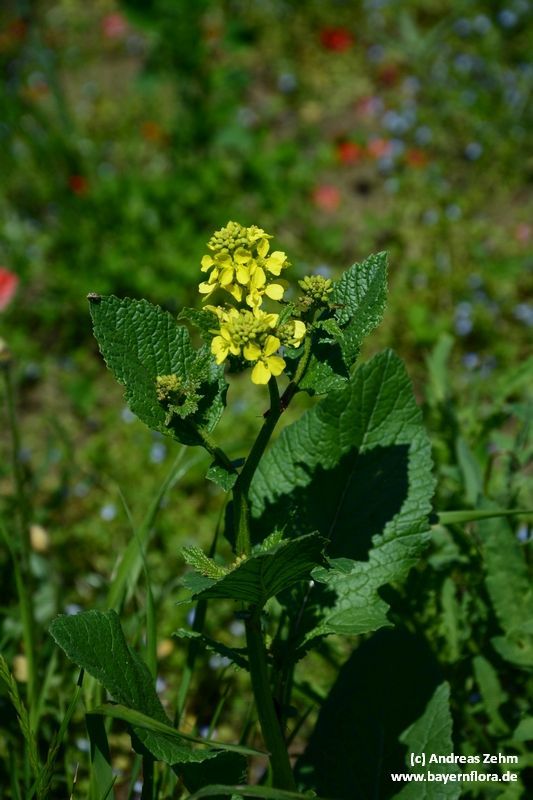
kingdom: Plantae
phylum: Tracheophyta
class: Magnoliopsida
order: Brassicales
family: Brassicaceae
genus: Sinapis
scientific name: Sinapis arvensis
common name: Charlock
